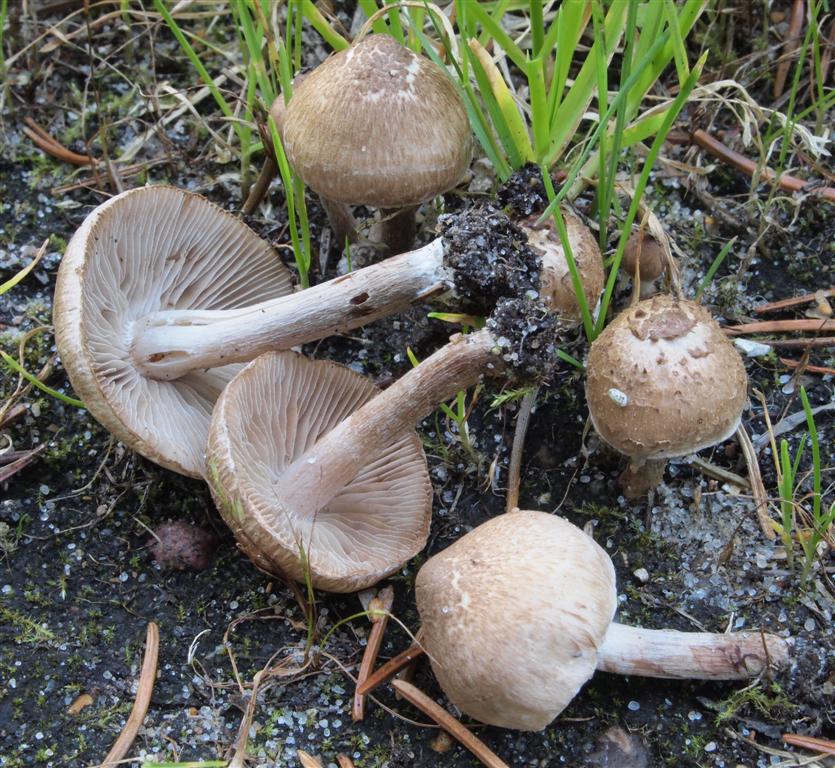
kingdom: Fungi
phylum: Basidiomycota
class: Agaricomycetes
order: Agaricales
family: Inocybaceae
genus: Inocybe
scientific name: Inocybe curvipes
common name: plæne-trævlhat
